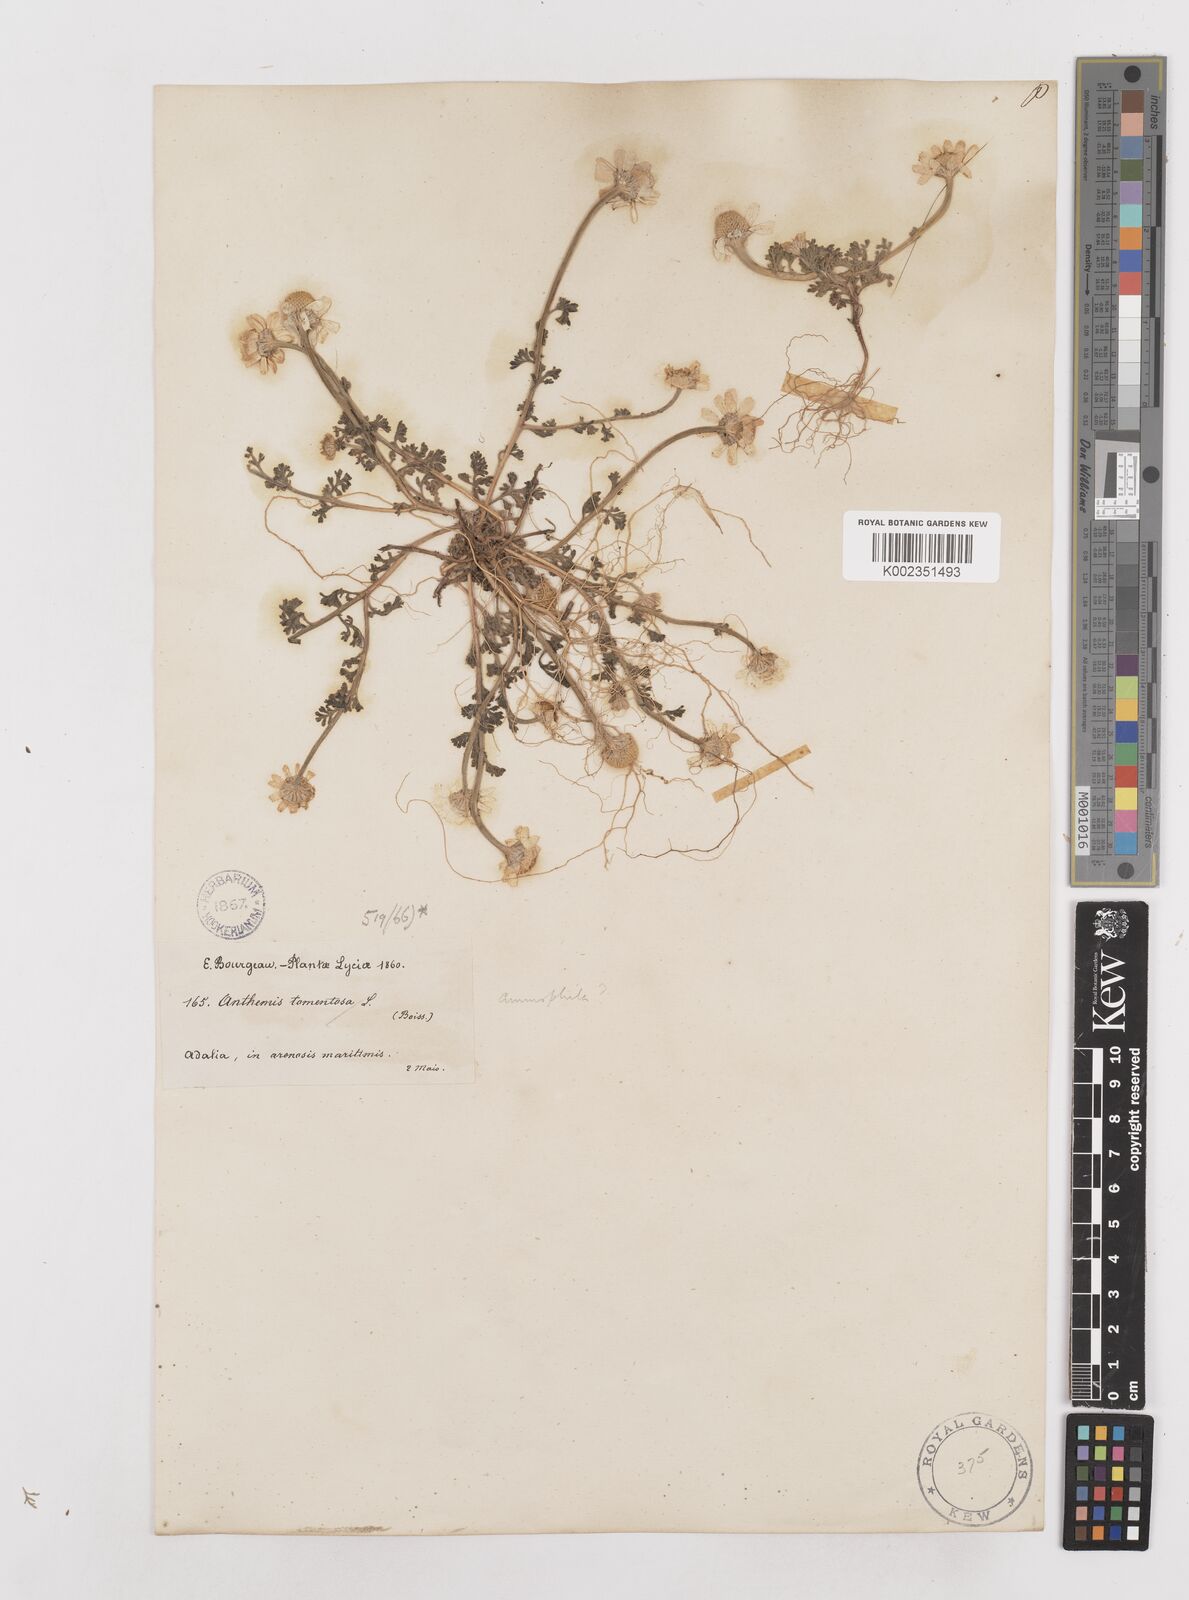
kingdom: Plantae
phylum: Tracheophyta
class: Magnoliopsida
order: Asterales
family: Asteraceae
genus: Anthemis
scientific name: Anthemis tomentosa
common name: Woolly chamomile
